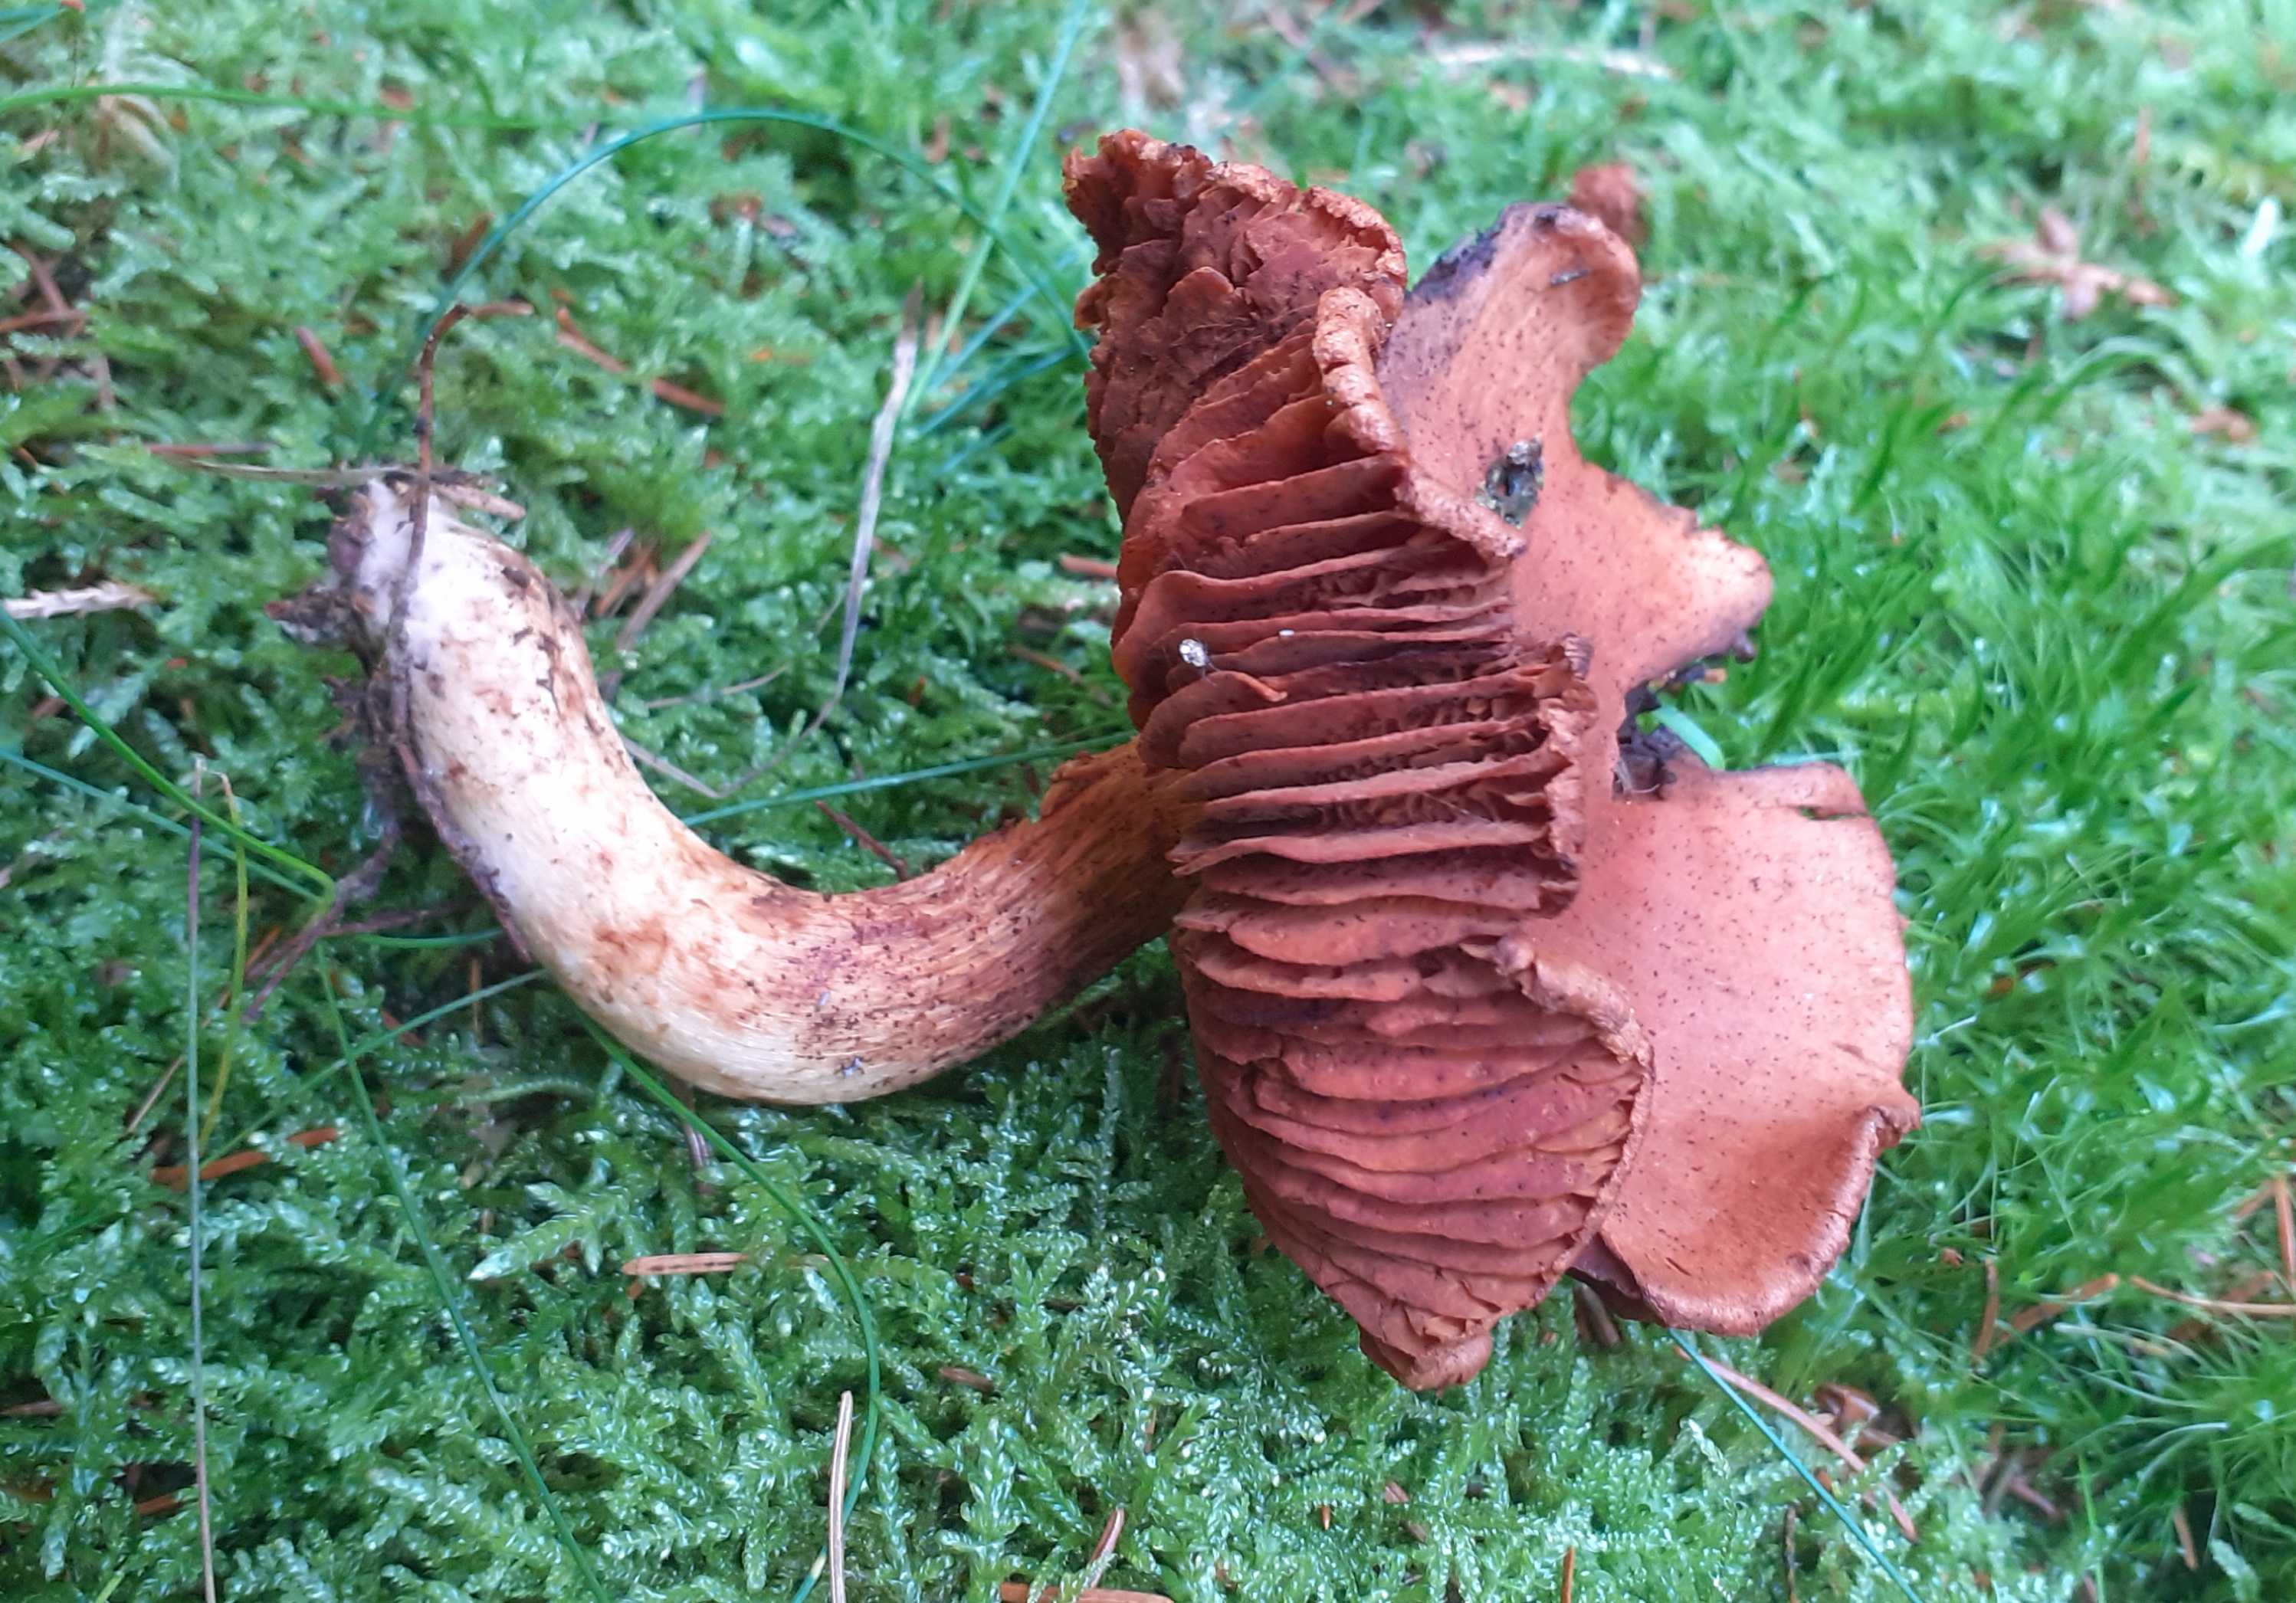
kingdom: Fungi
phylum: Basidiomycota
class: Agaricomycetes
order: Agaricales
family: Cortinariaceae
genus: Cortinarius
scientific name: Cortinarius rubellus
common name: puklet gift-slørhat
